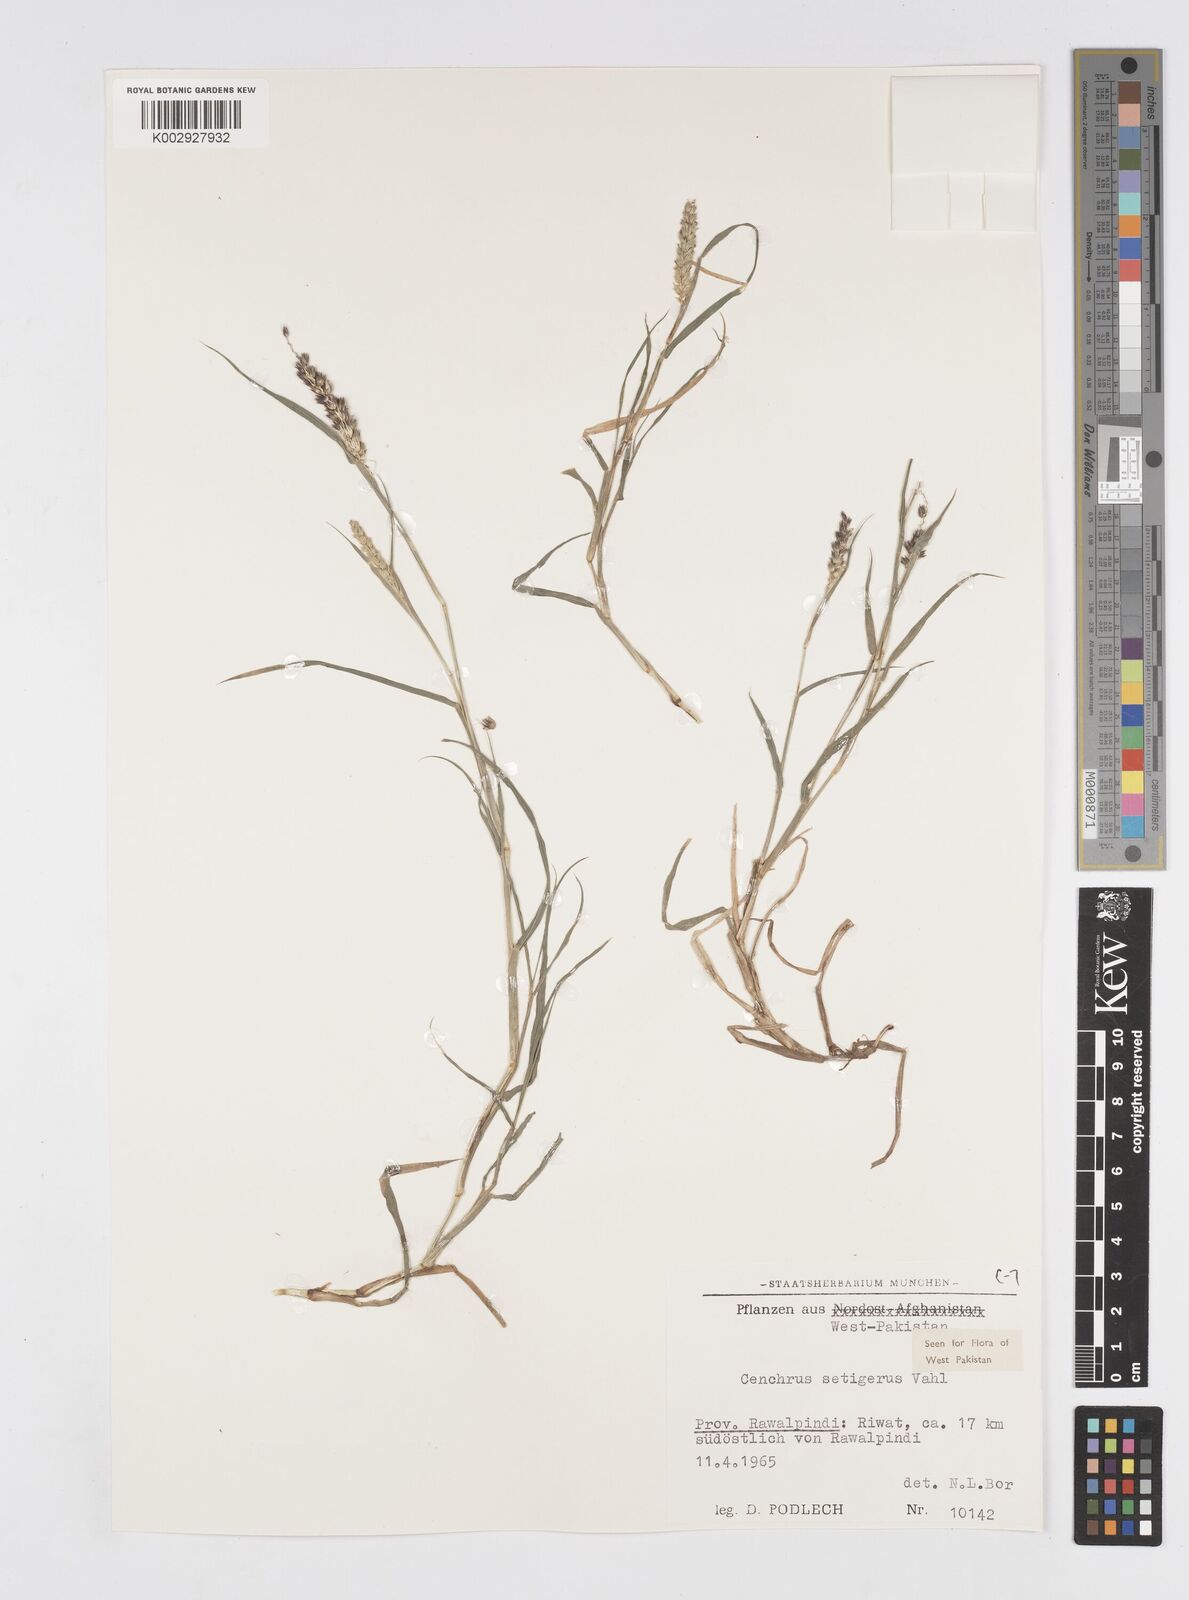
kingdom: Plantae
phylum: Tracheophyta
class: Liliopsida
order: Poales
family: Poaceae
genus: Cenchrus
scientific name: Cenchrus setigerus
